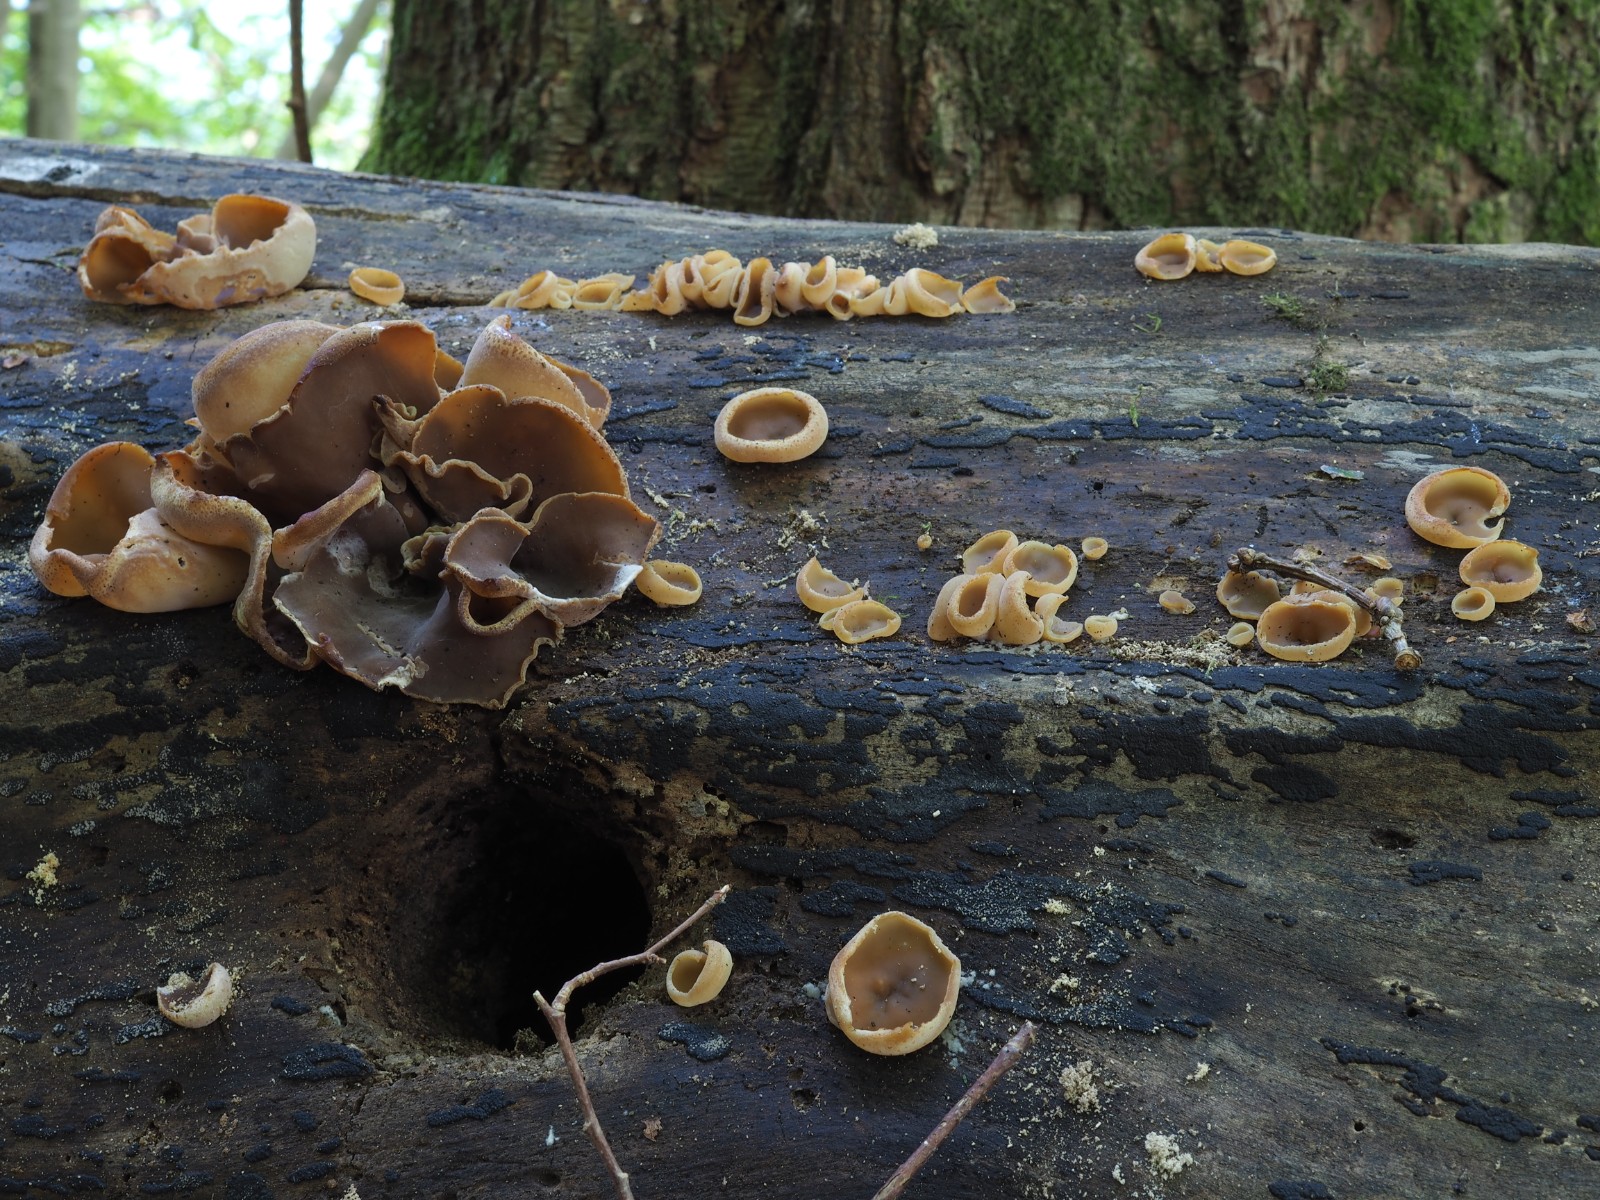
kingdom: Fungi
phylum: Ascomycota
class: Pezizomycetes
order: Pezizales
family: Pezizaceae
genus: Peziza
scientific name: Peziza varia
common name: Ved-bægersvamp
